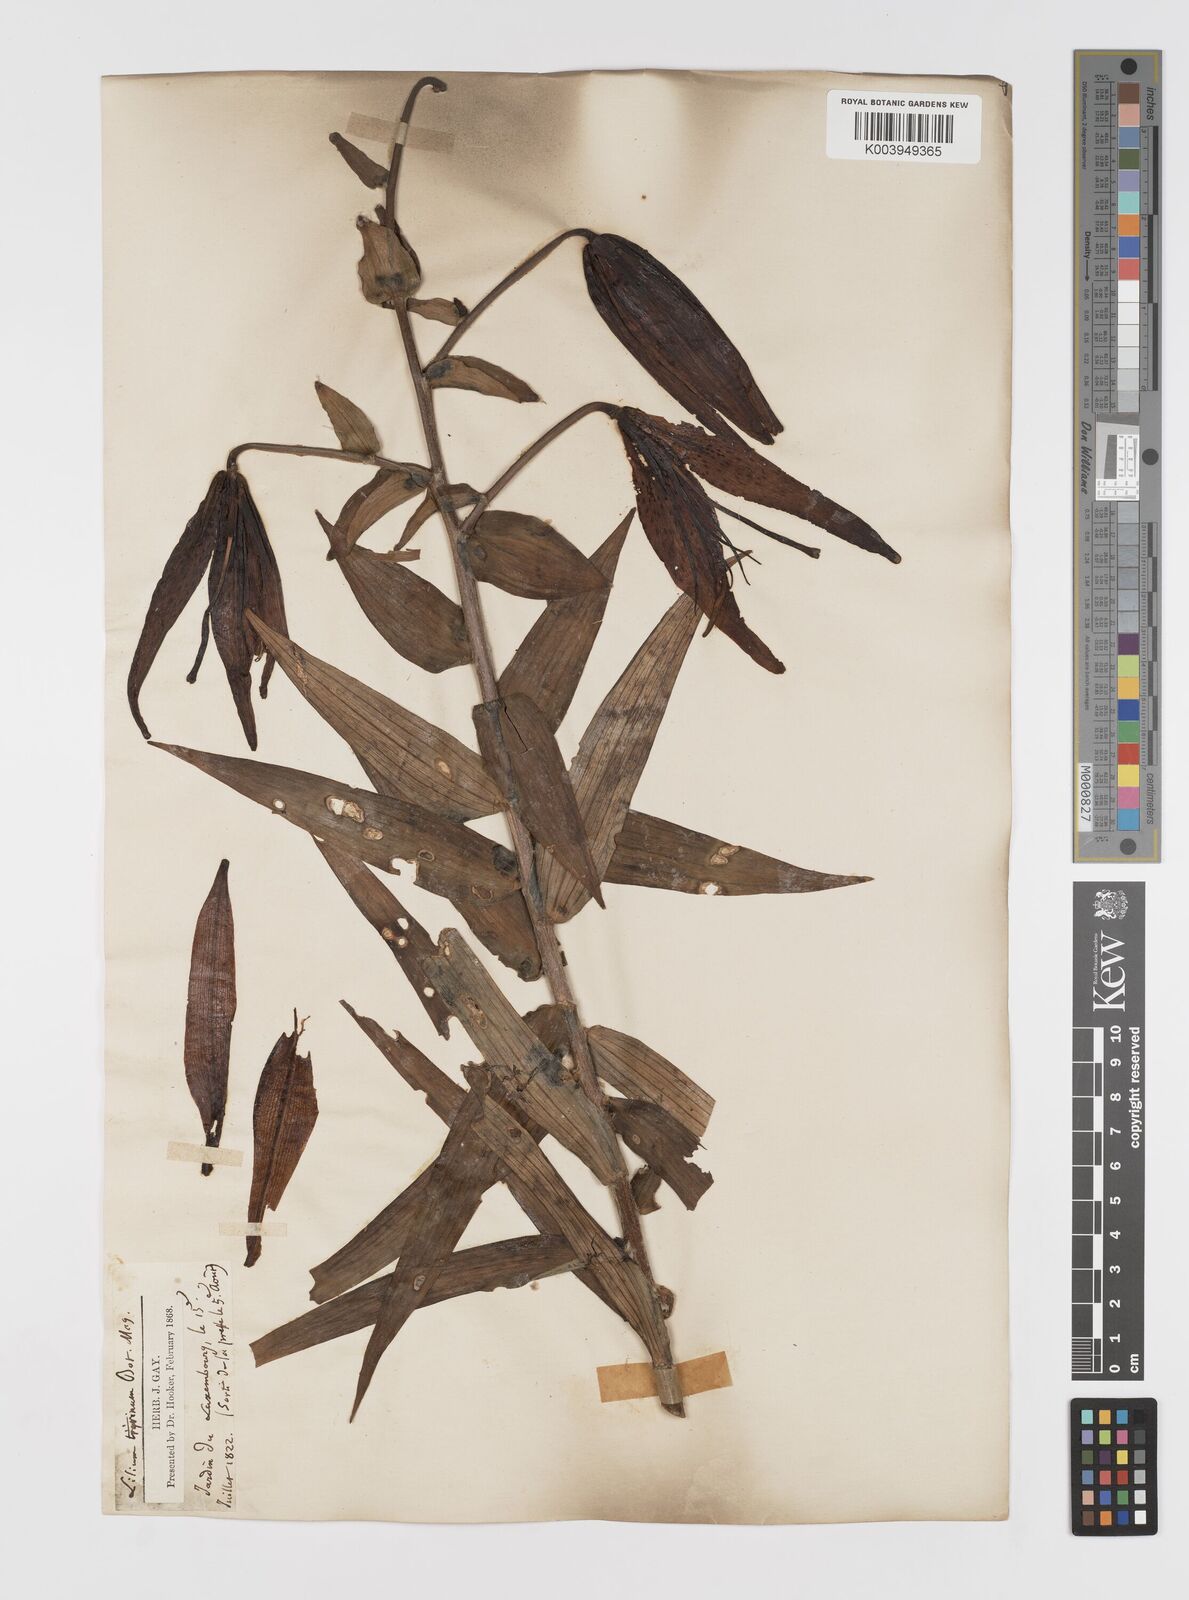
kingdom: Plantae
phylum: Tracheophyta
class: Liliopsida
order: Liliales
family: Liliaceae
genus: Lilium
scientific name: Lilium lancifolium
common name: Tiger lily
